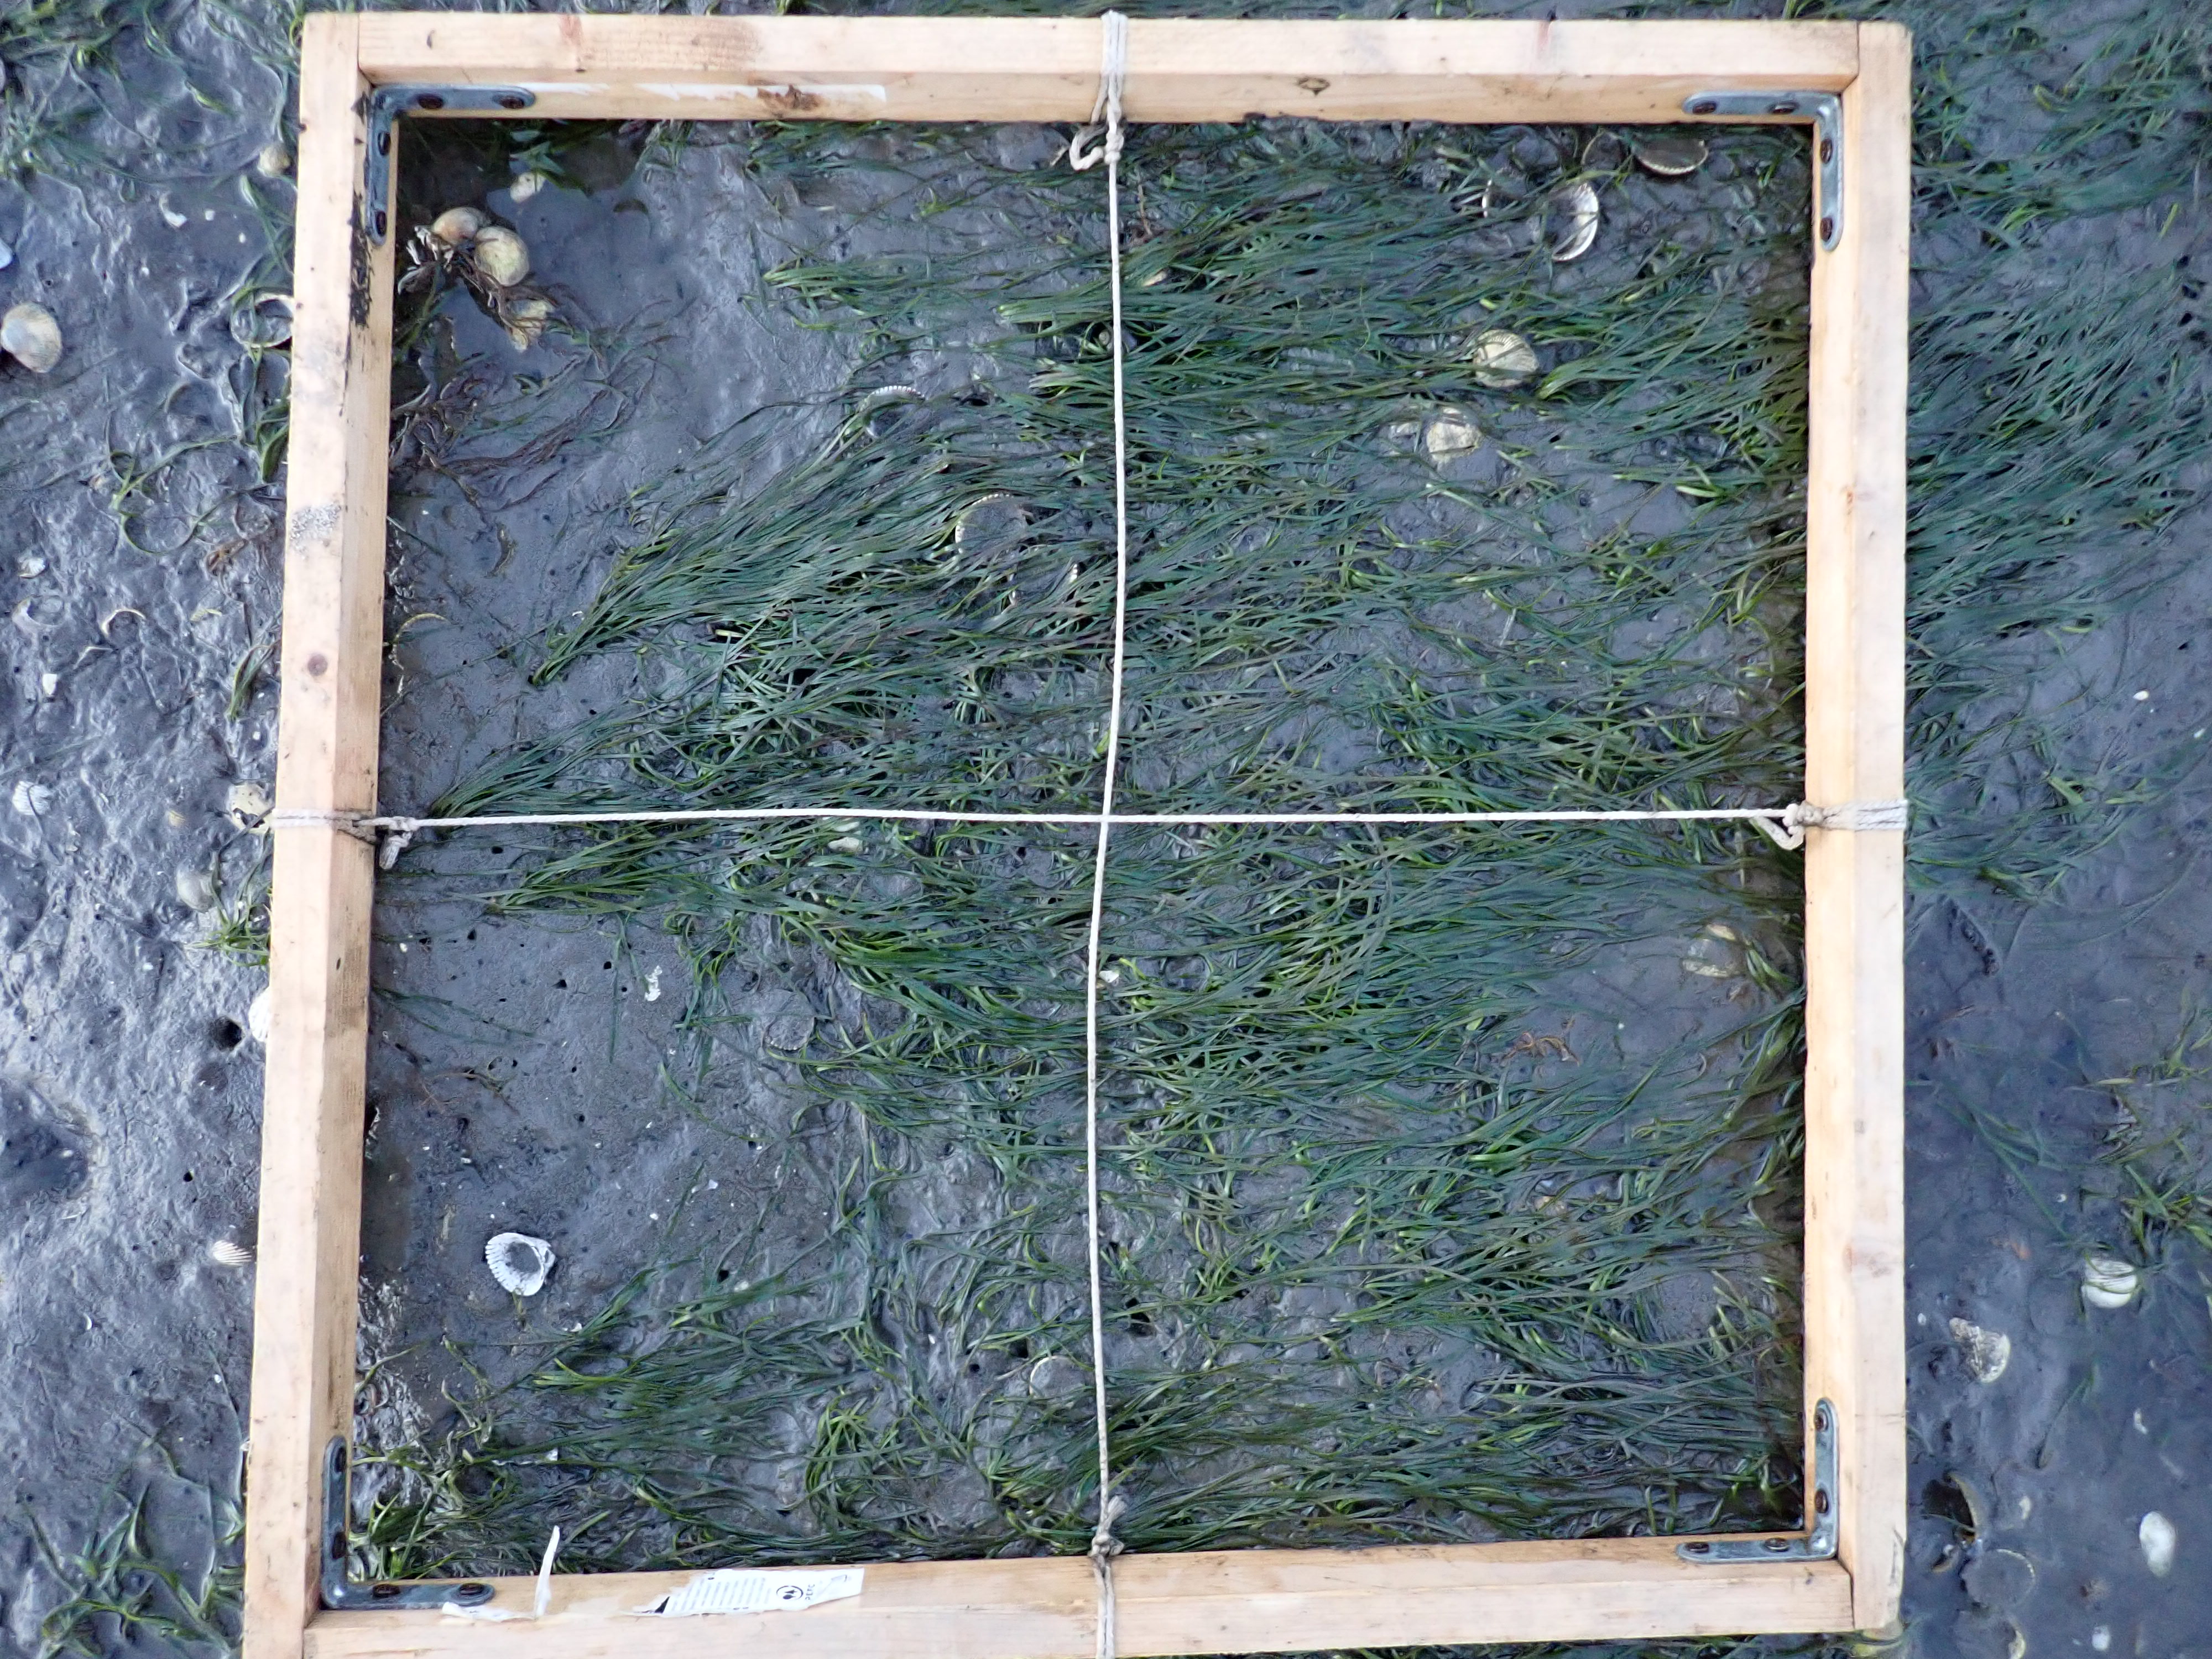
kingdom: Plantae
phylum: Tracheophyta
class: Liliopsida
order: Alismatales
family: Zosteraceae
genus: Zostera
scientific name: Zostera noltii
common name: Dwarf eelgrass
